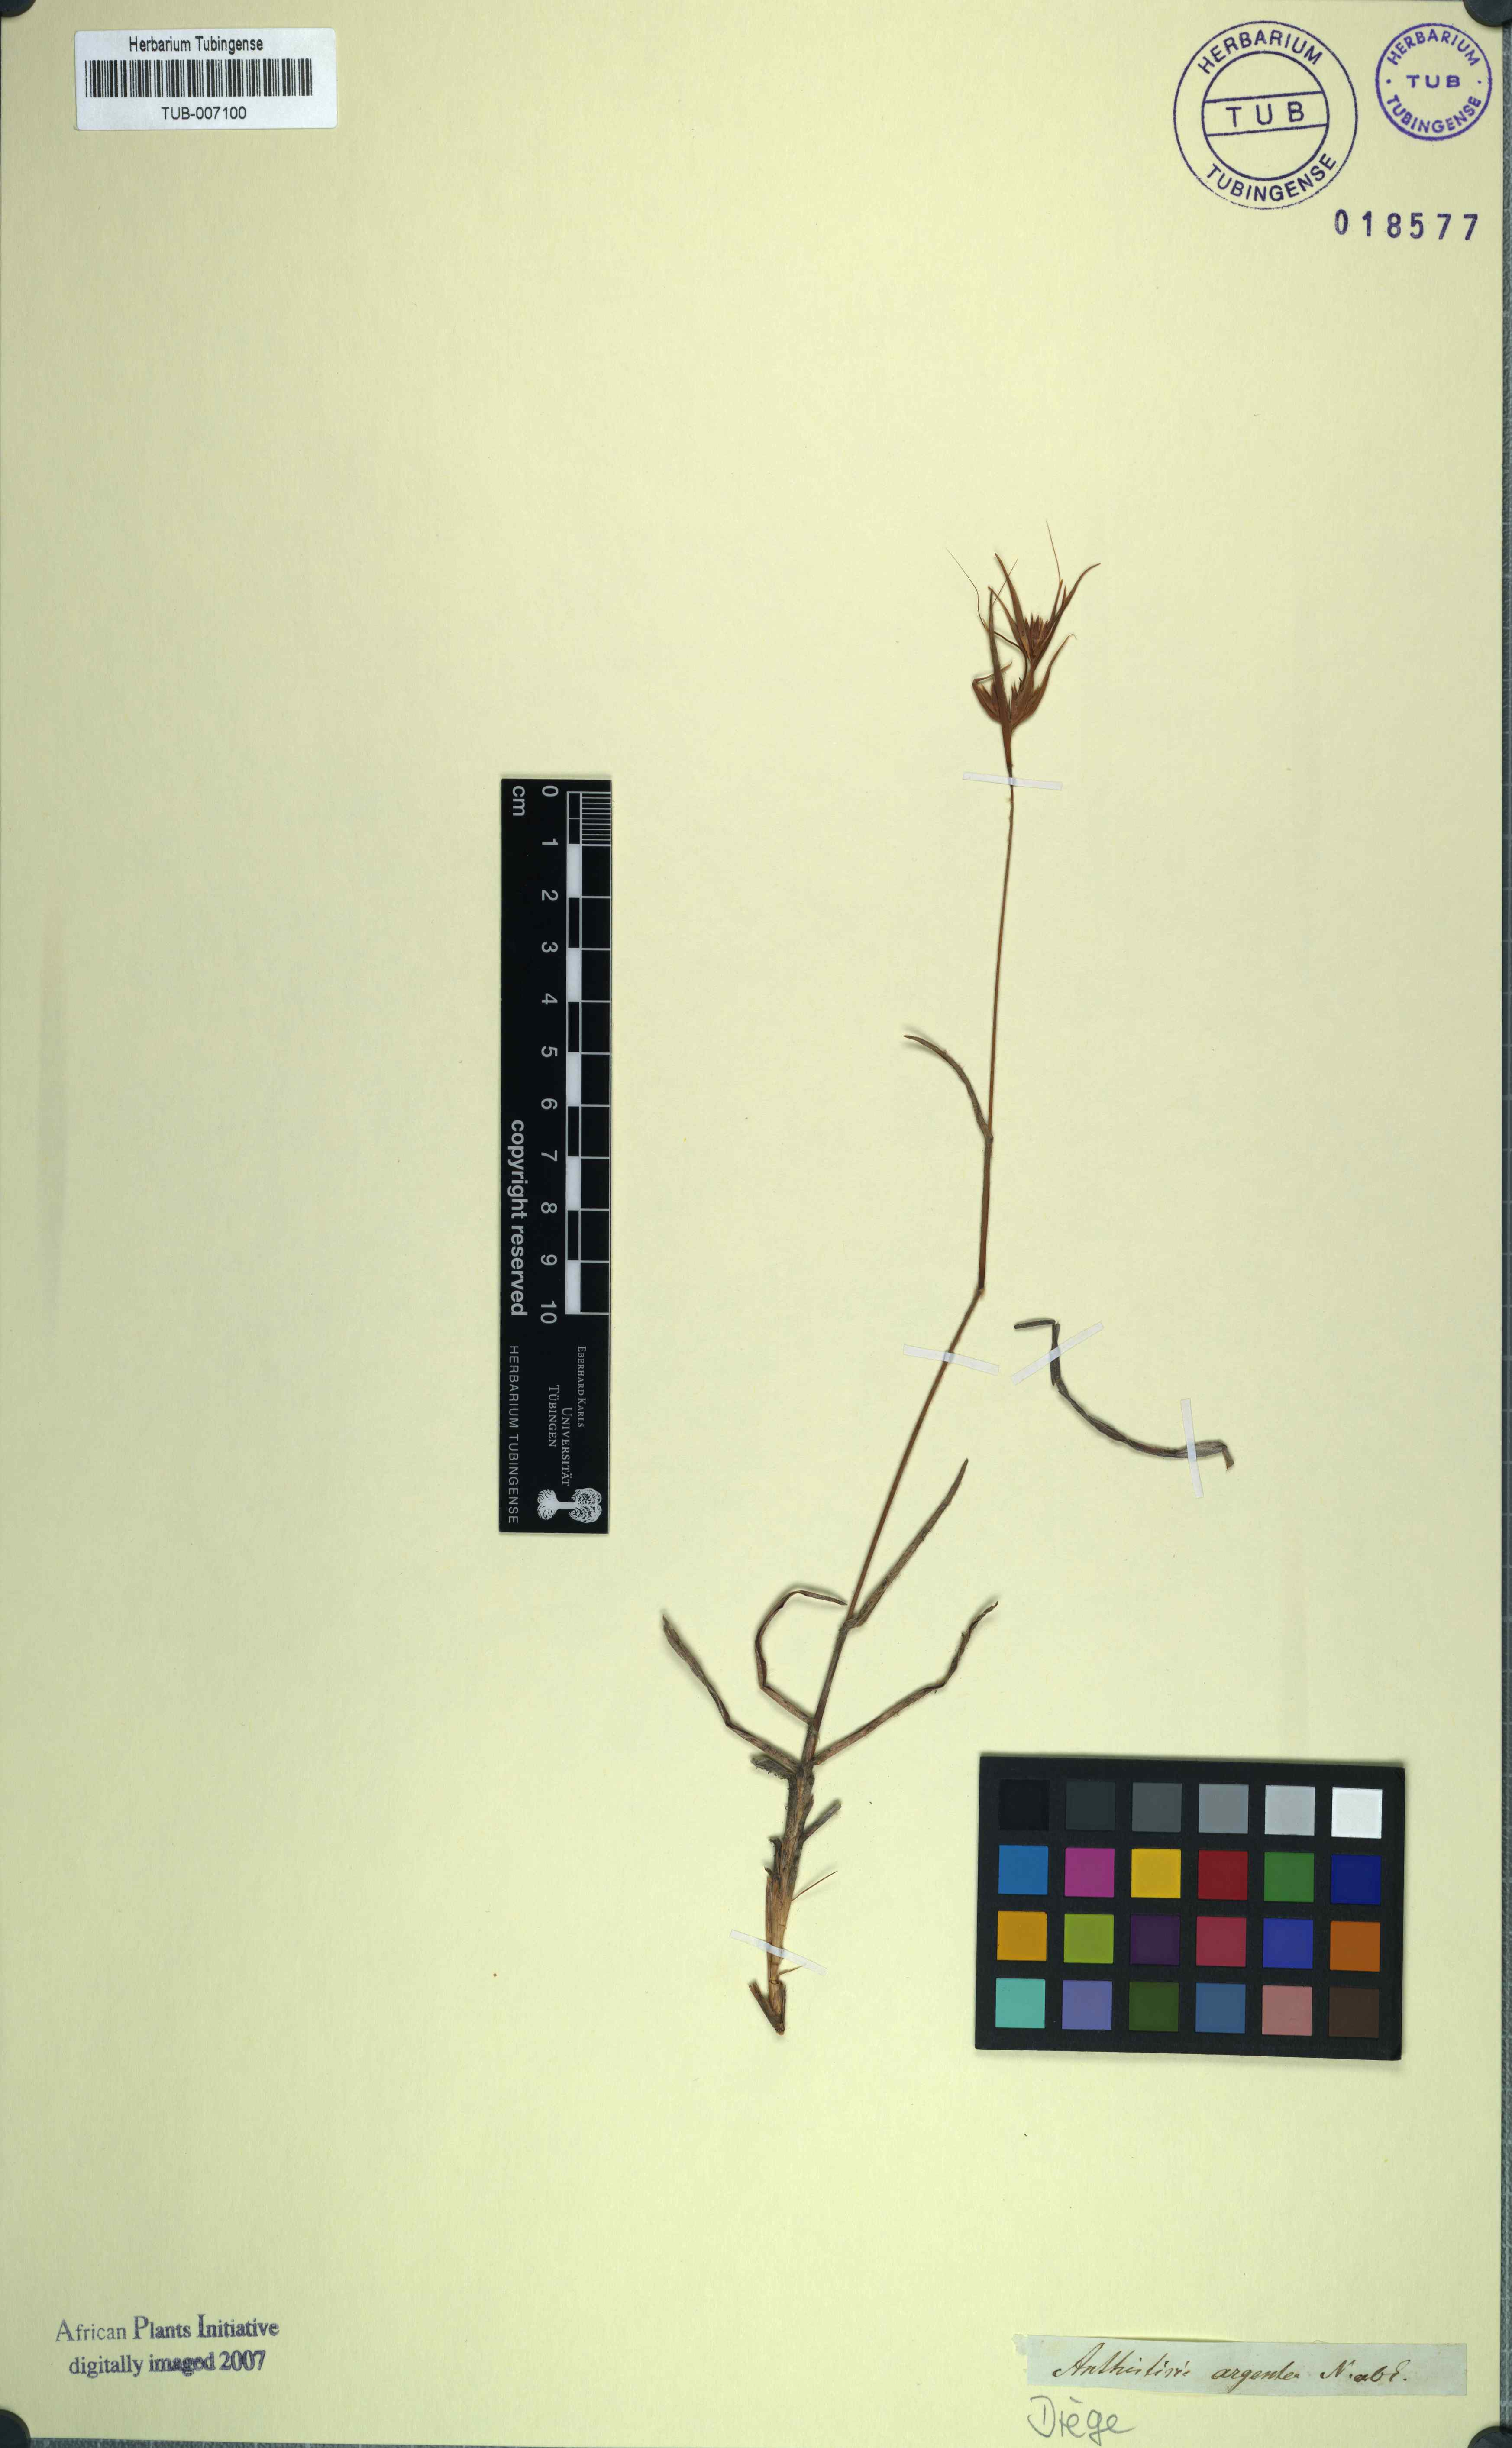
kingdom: Plantae
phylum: Tracheophyta
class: Liliopsida
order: Poales
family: Poaceae
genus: Themeda
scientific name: Themeda triandra
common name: Kangaroo grass
